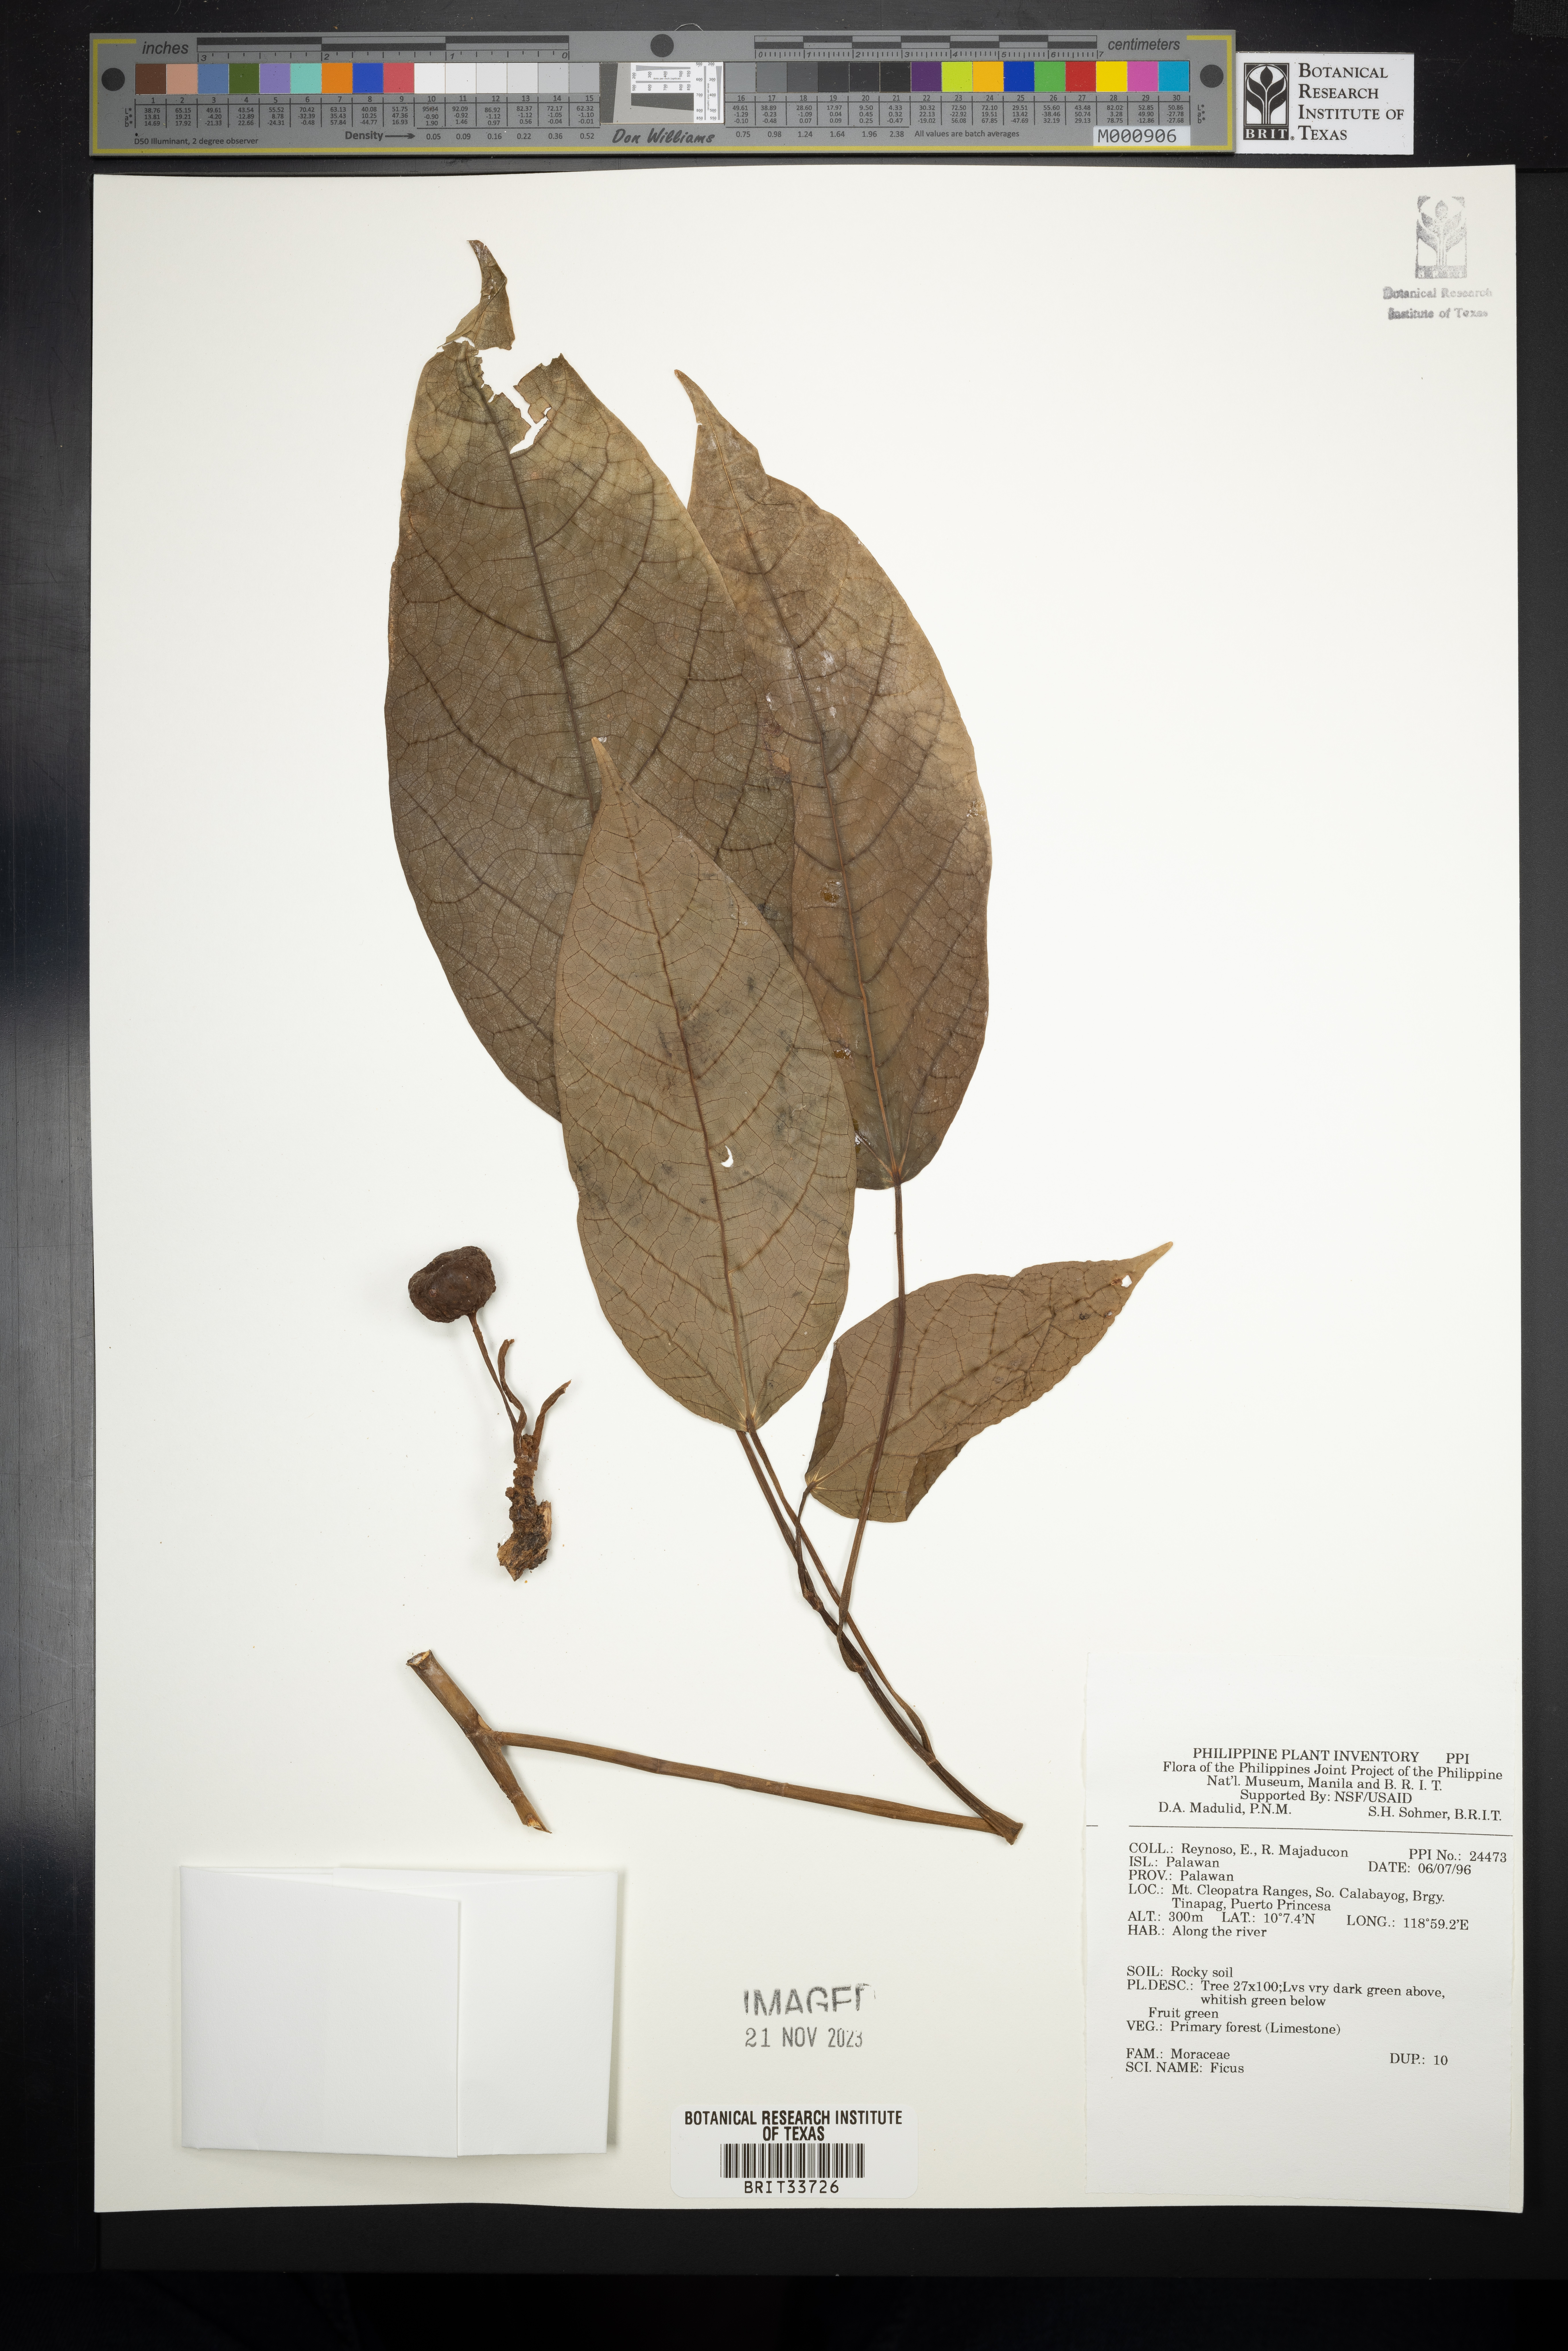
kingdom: Plantae
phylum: Tracheophyta
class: Magnoliopsida
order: Rosales
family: Moraceae
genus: Ficus
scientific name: Ficus
